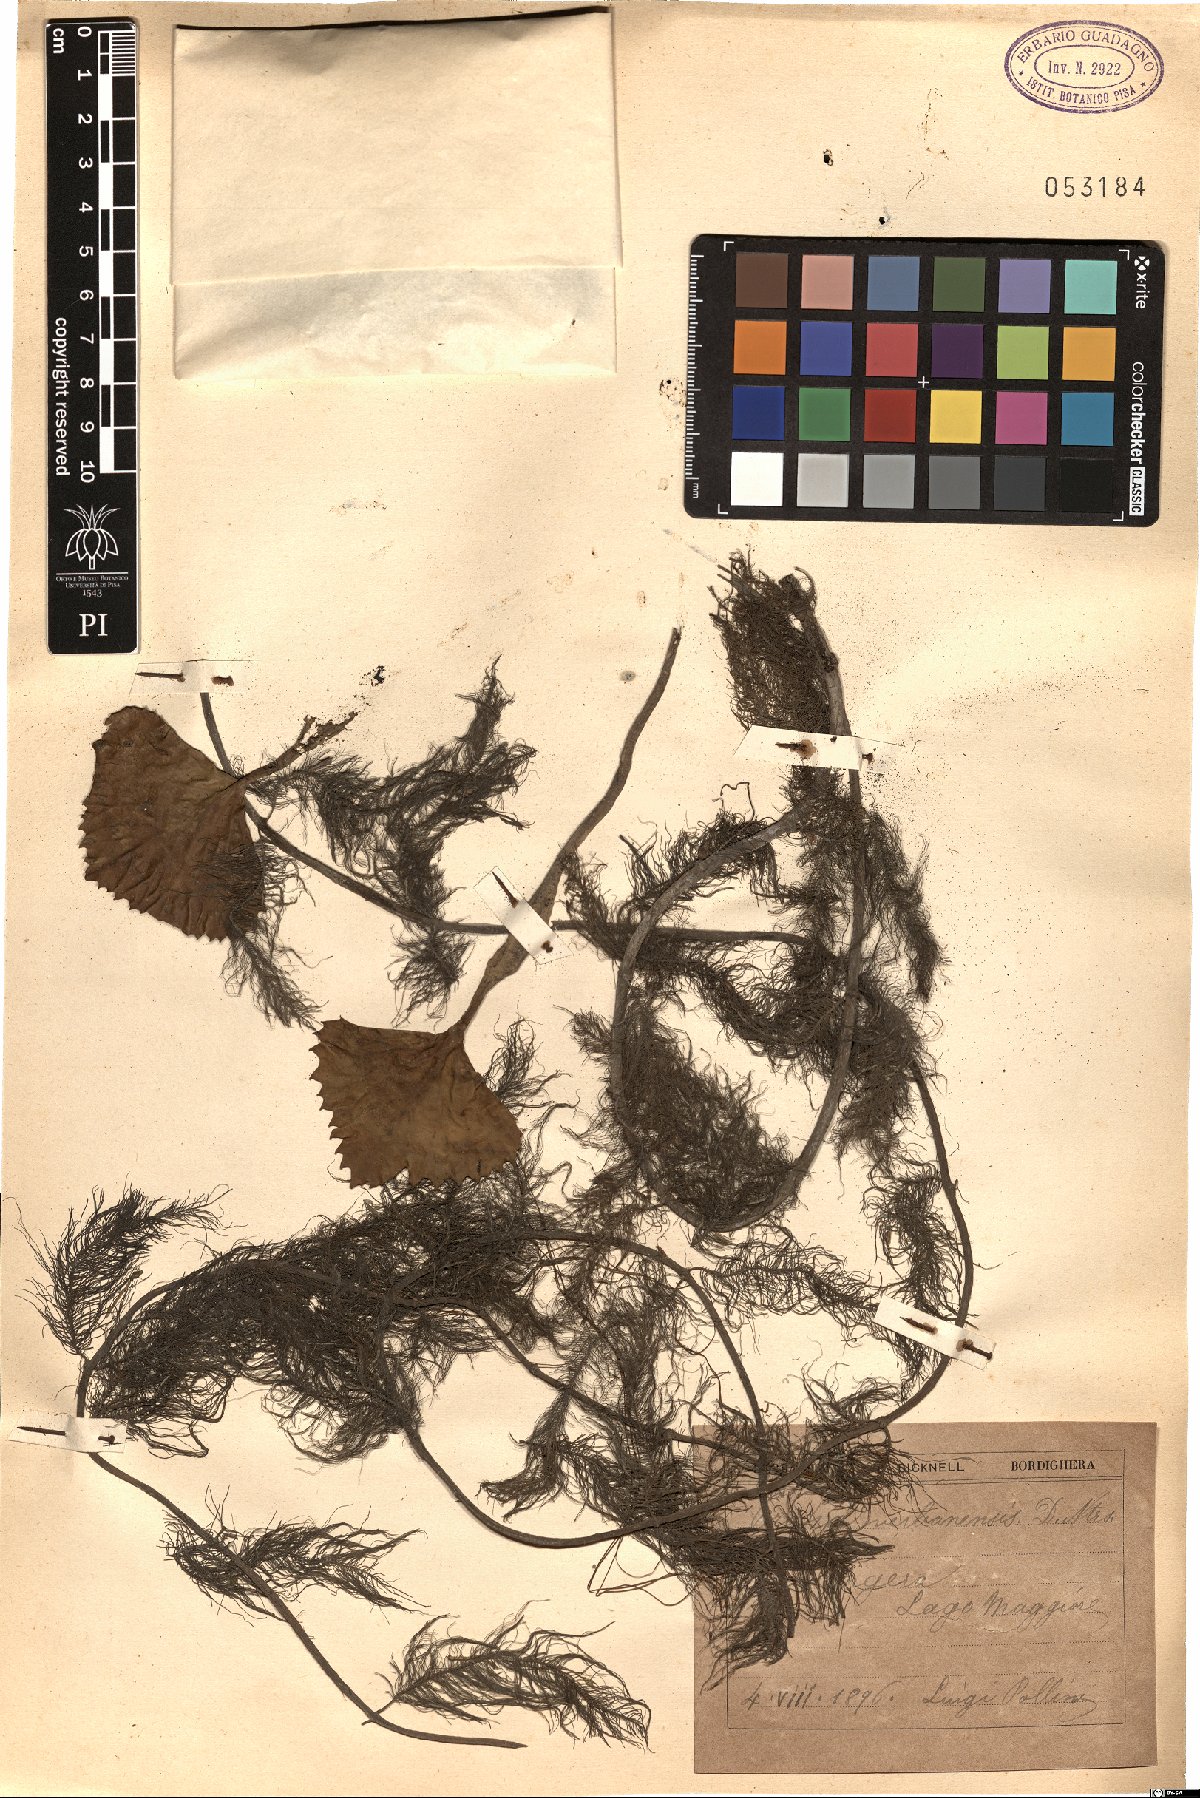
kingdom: Plantae
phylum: Tracheophyta
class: Magnoliopsida
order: Myrtales
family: Lythraceae
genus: Trapa
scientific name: Trapa natans
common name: Water chestnut
